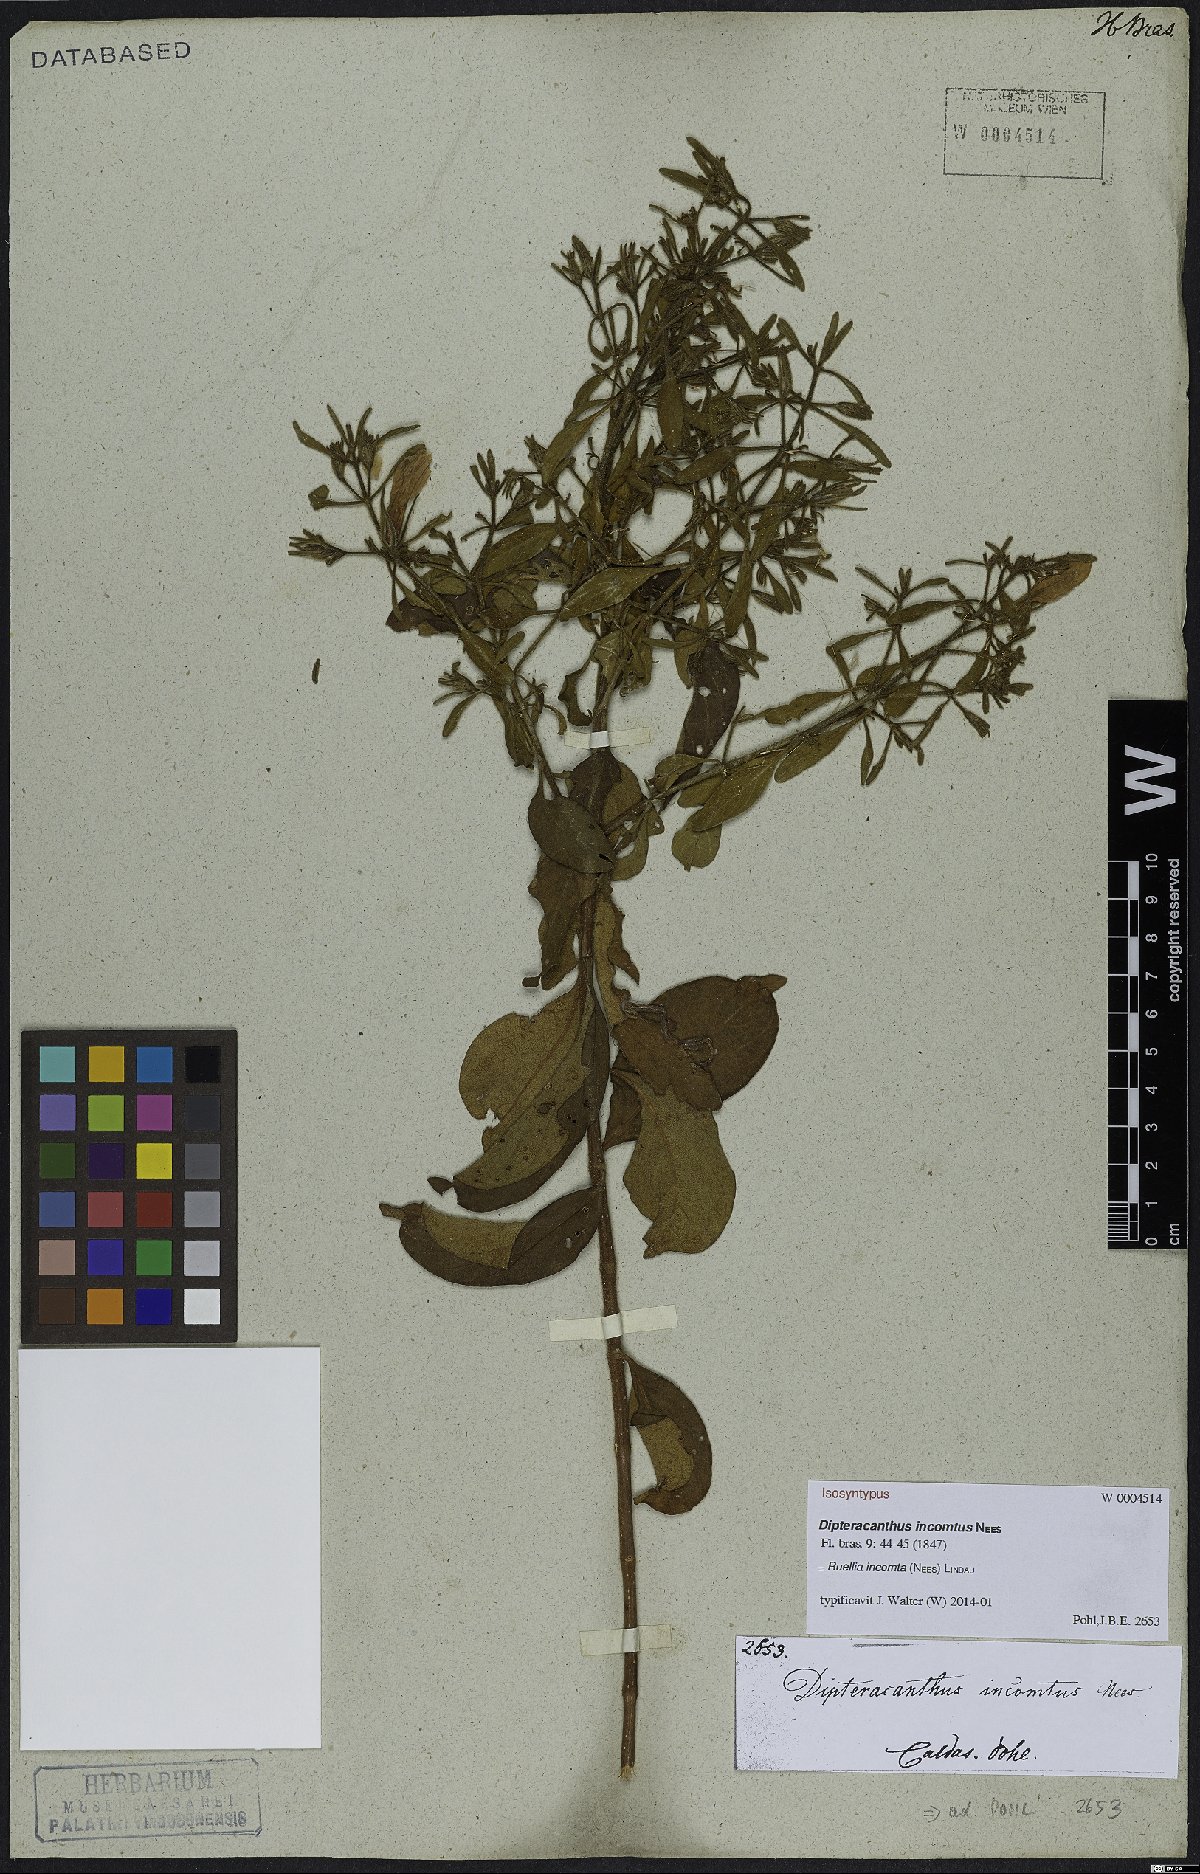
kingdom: Plantae
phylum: Tracheophyta
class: Magnoliopsida
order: Lamiales
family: Acanthaceae
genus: Ruellia
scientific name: Ruellia incomta
